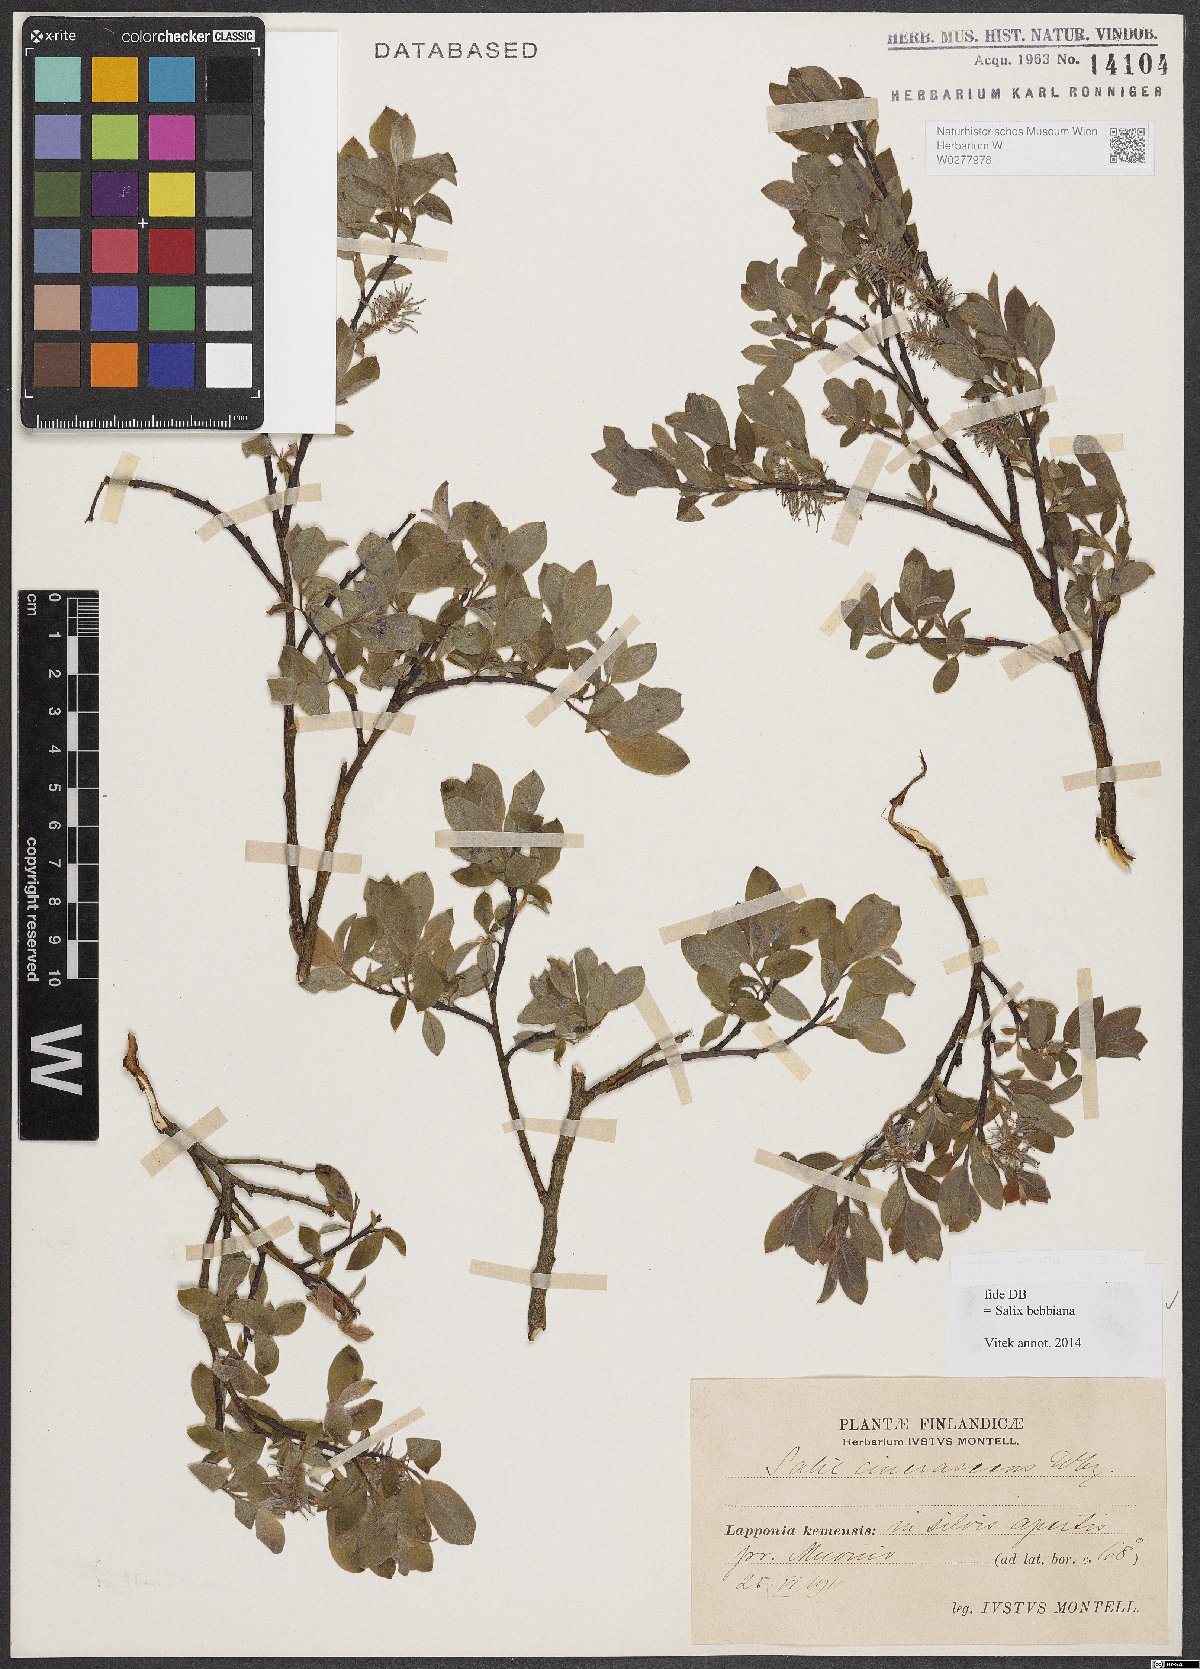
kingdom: Plantae
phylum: Tracheophyta
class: Magnoliopsida
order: Malpighiales
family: Salicaceae
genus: Salix
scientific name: Salix bebbiana
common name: Bebb's willow
